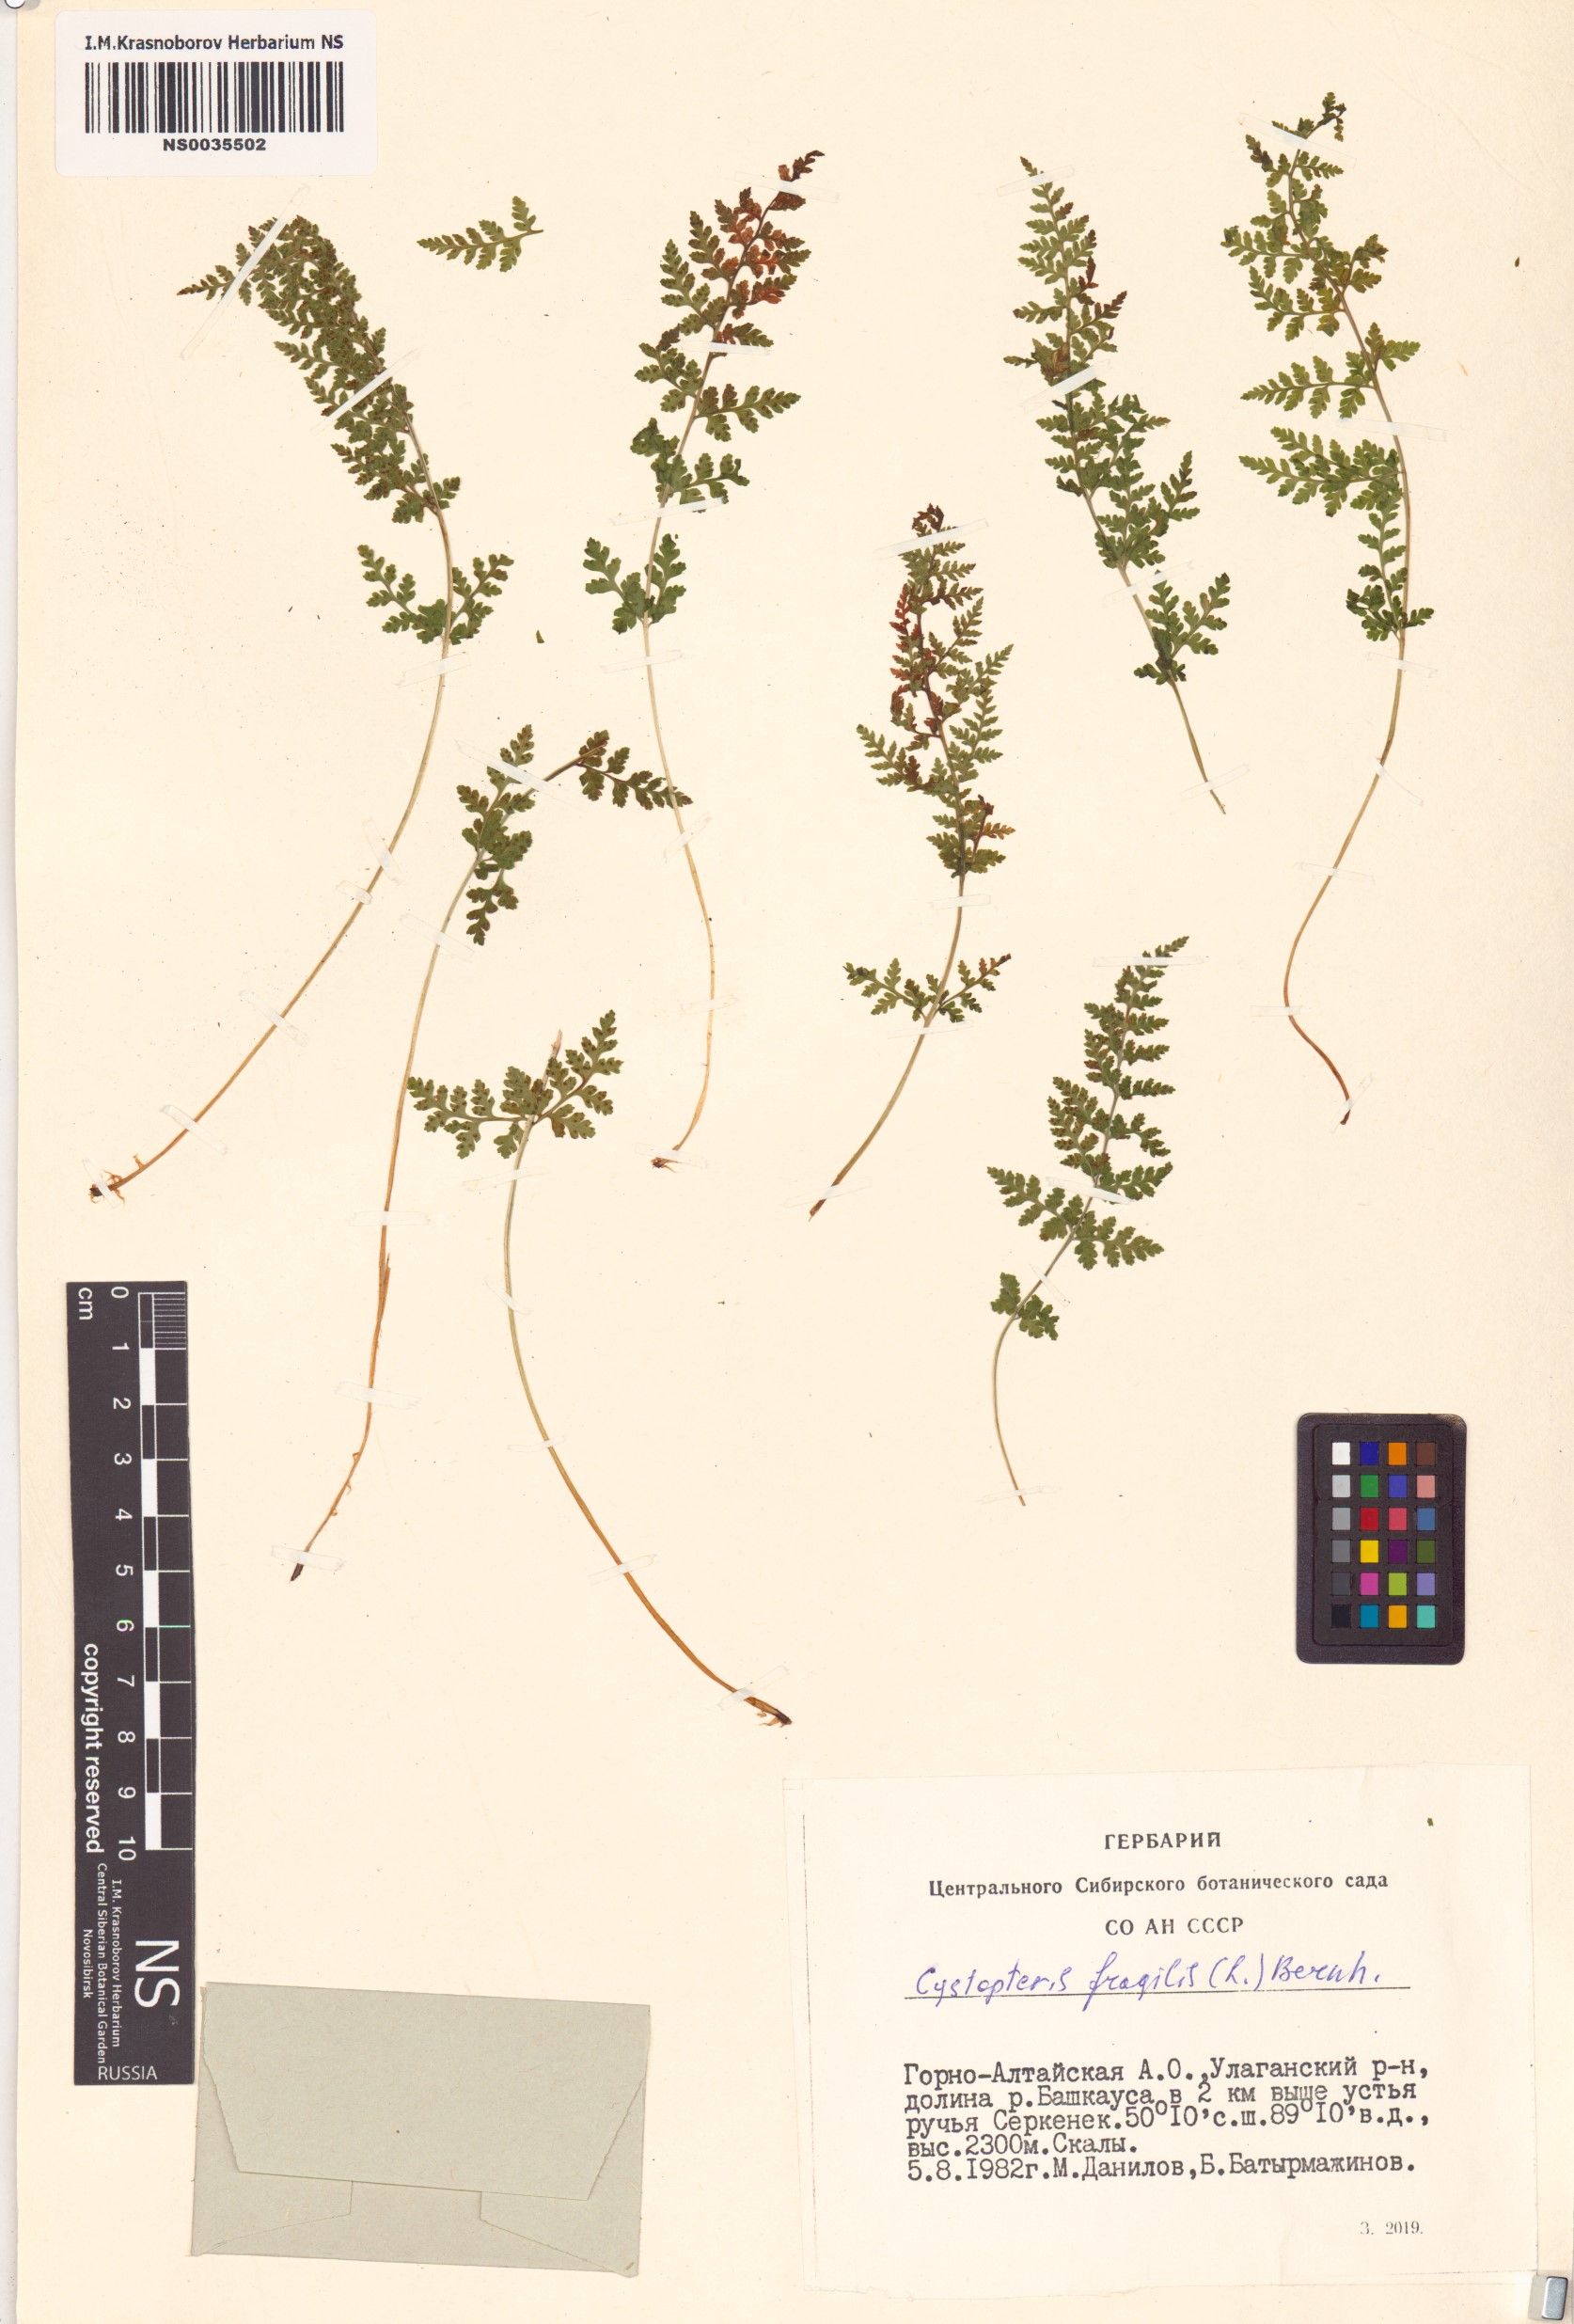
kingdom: Plantae
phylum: Tracheophyta
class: Polypodiopsida
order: Polypodiales
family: Cystopteridaceae
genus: Cystopteris
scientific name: Cystopteris fragilis
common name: Brittle bladder fern
